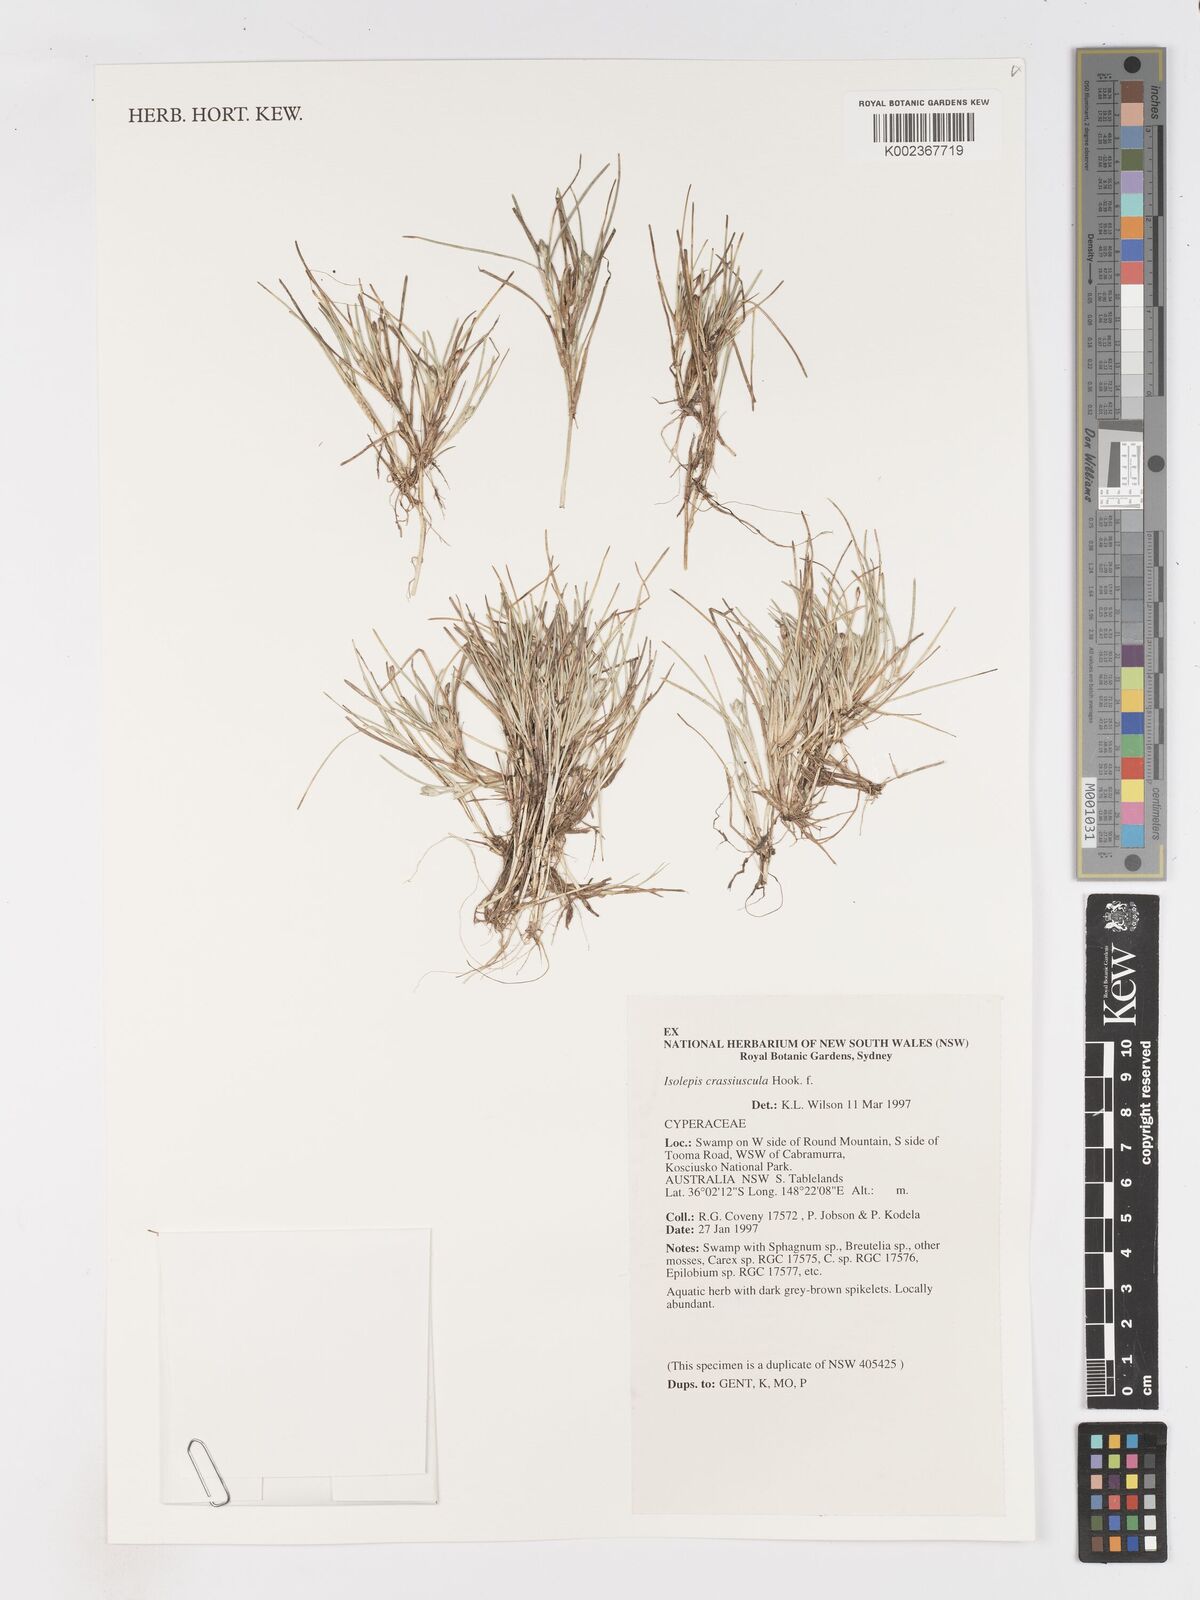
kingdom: Plantae
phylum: Tracheophyta
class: Liliopsida
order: Poales
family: Cyperaceae
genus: Isolepis
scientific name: Isolepis crassiuscula
